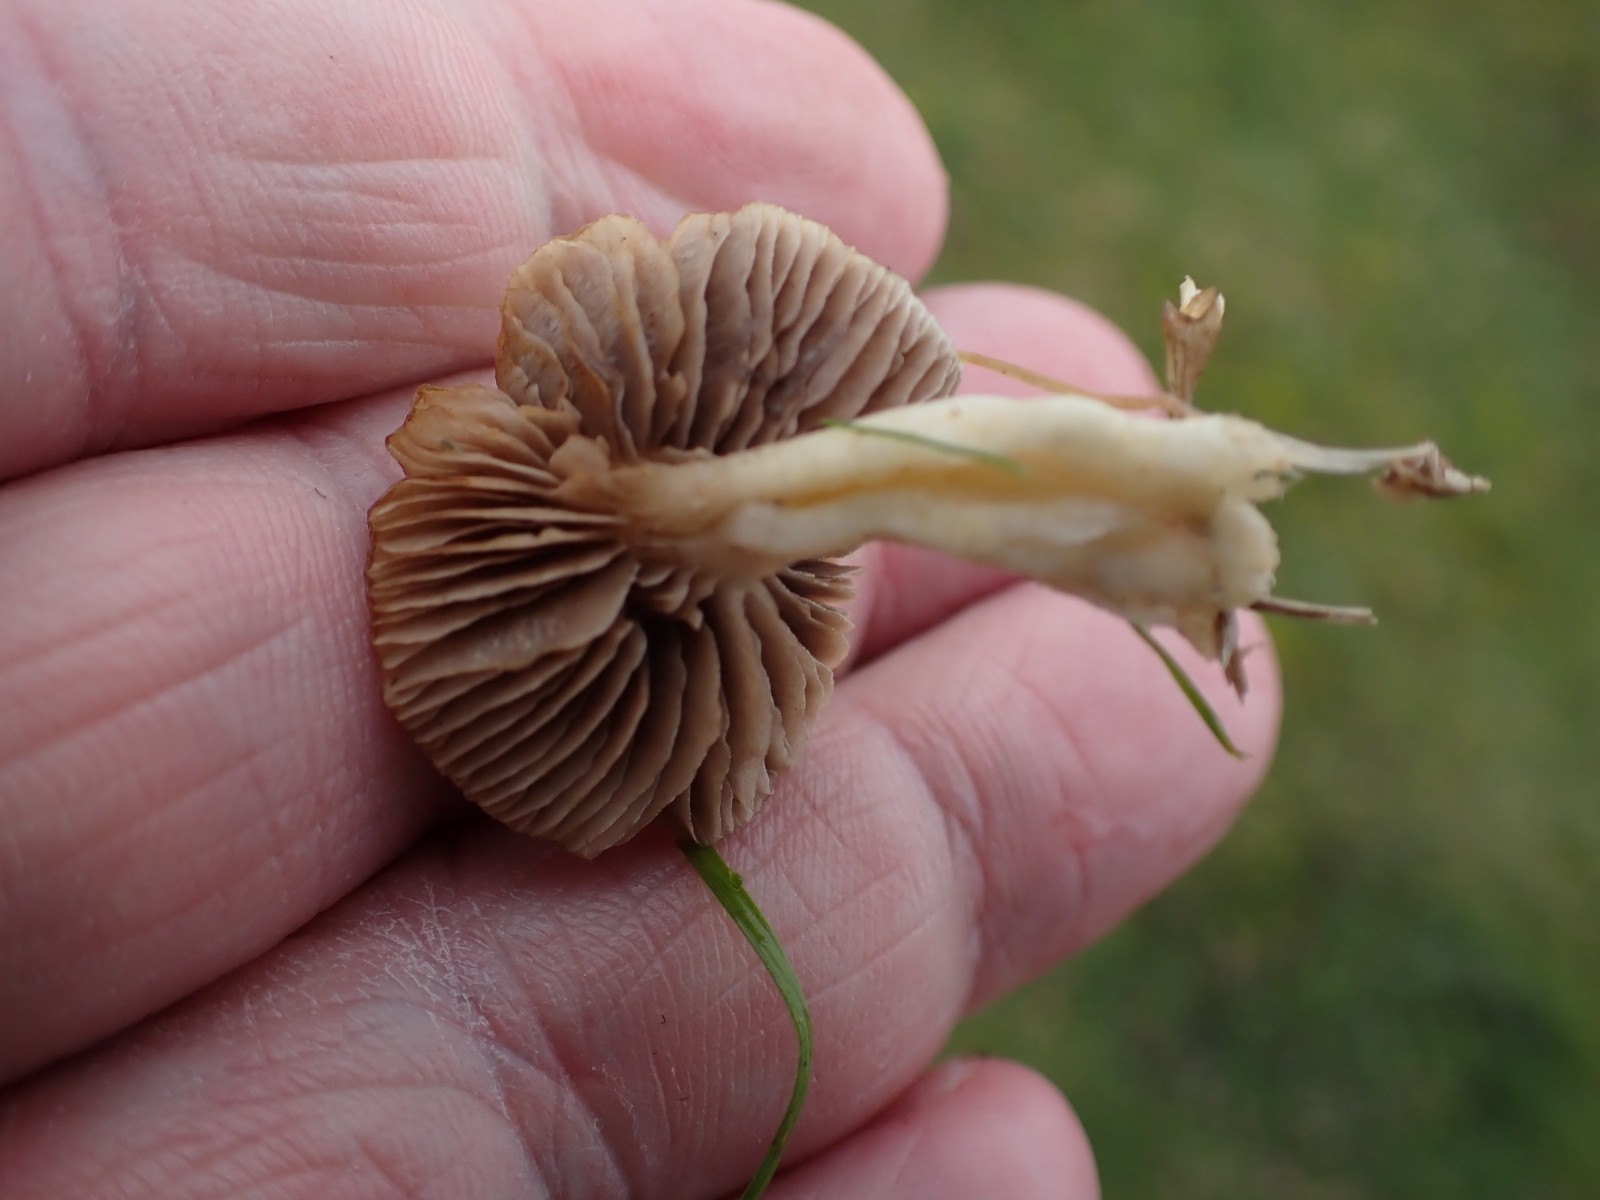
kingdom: Fungi
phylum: Basidiomycota
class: Agaricomycetes
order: Agaricales
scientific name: Agaricales
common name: champignonordenen
